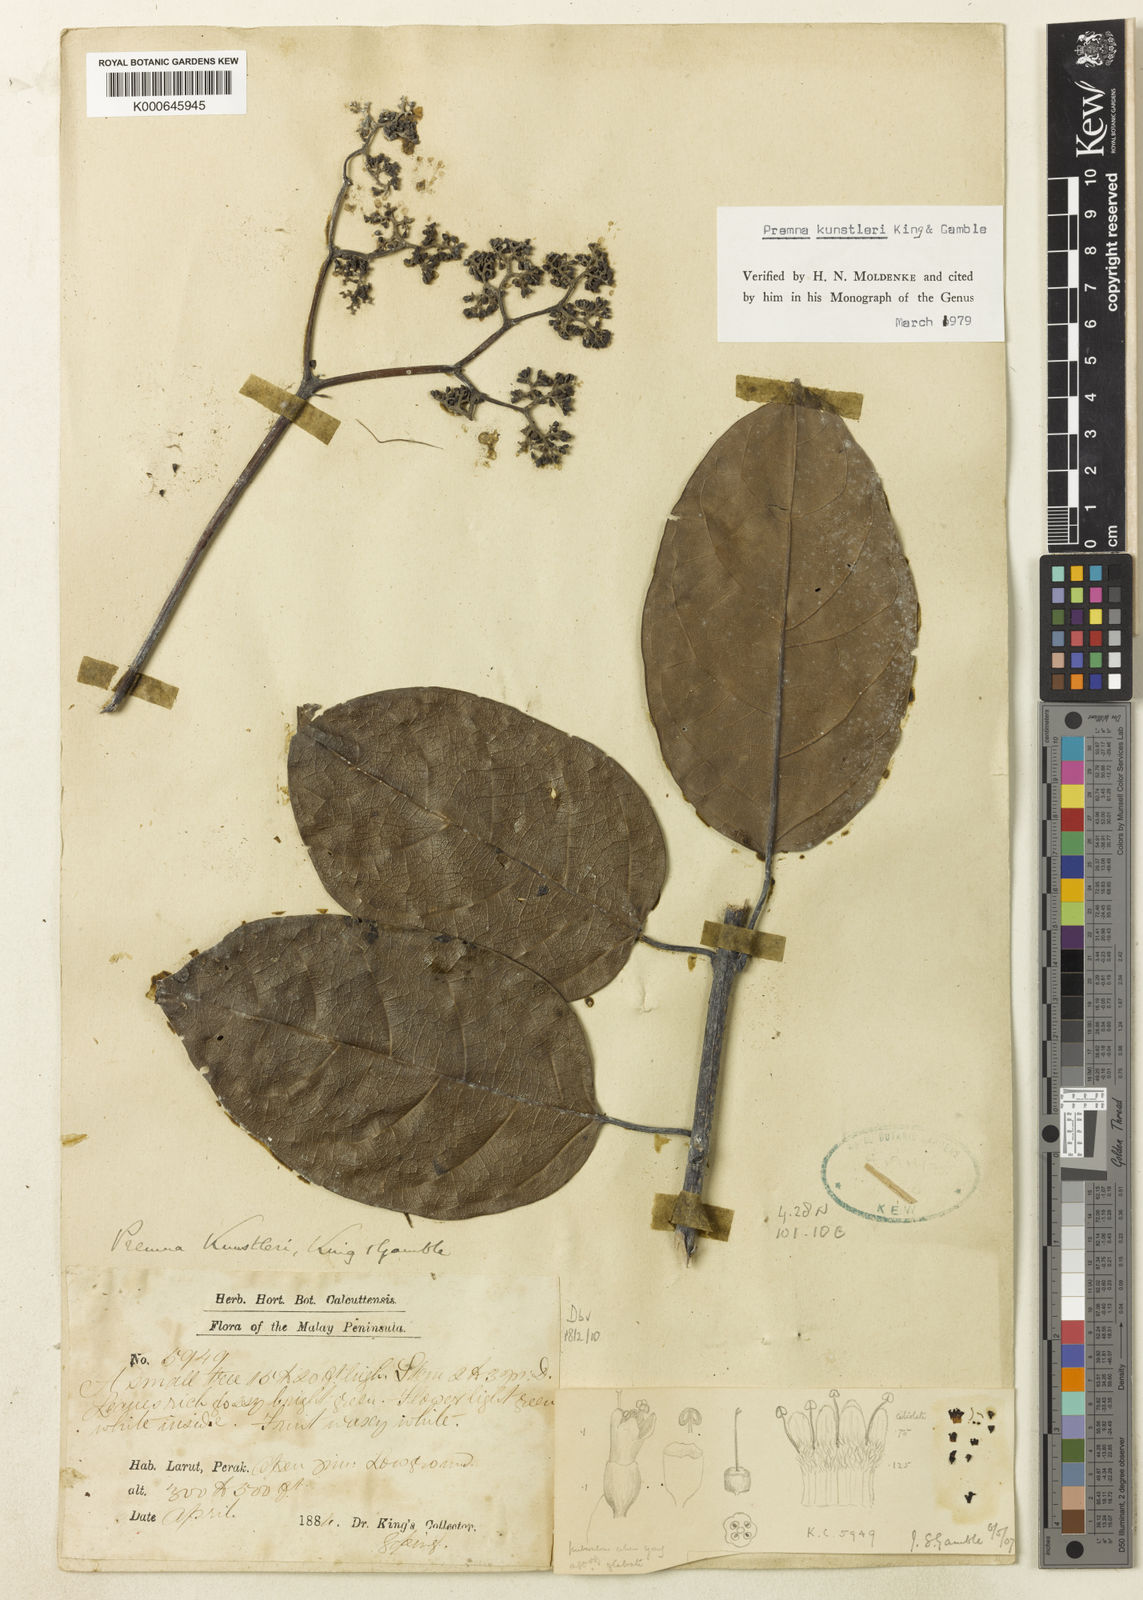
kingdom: Plantae
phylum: Tracheophyta
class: Magnoliopsida
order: Lamiales
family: Lamiaceae
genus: Premna
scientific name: Premna serratifolia
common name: Bastard guelder
